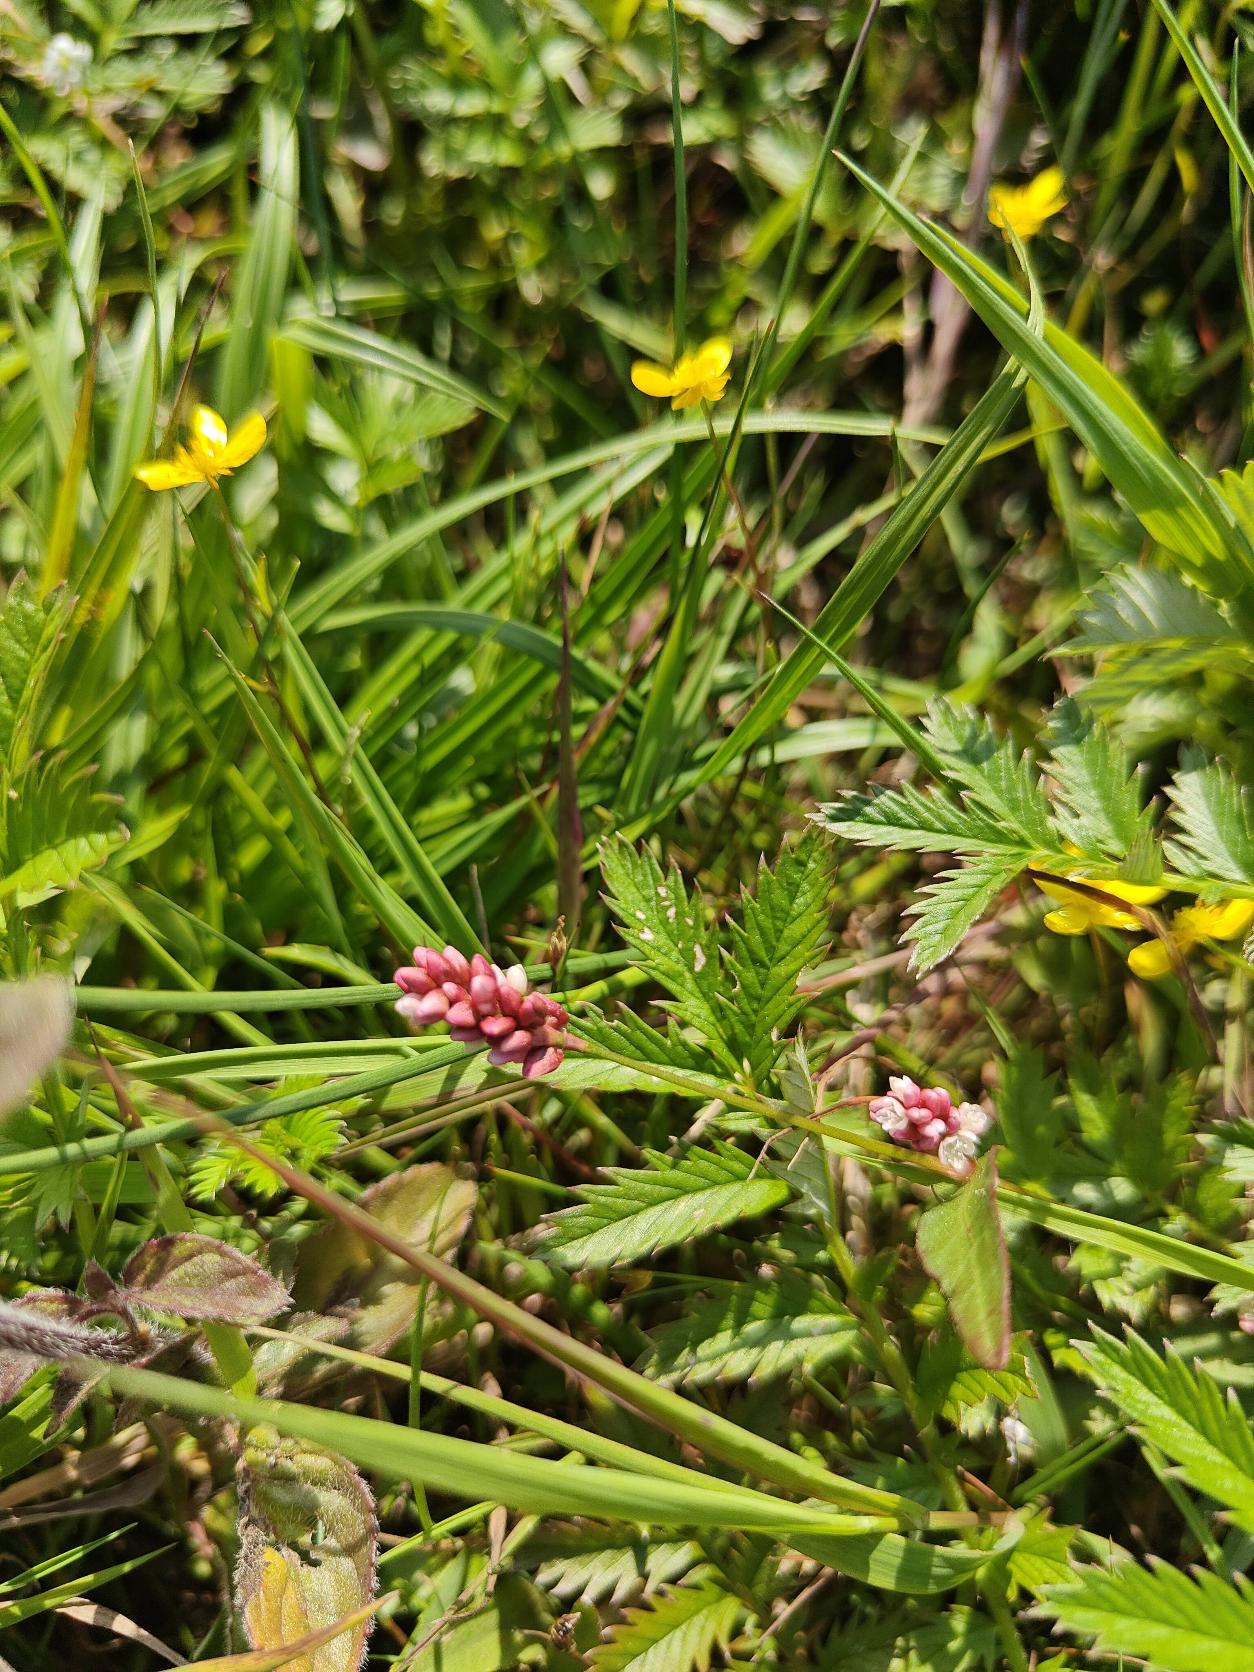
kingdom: Plantae
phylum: Tracheophyta
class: Magnoliopsida
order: Caryophyllales
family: Polygonaceae
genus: Persicaria
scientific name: Persicaria maculosa
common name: Fersken-pileurt
